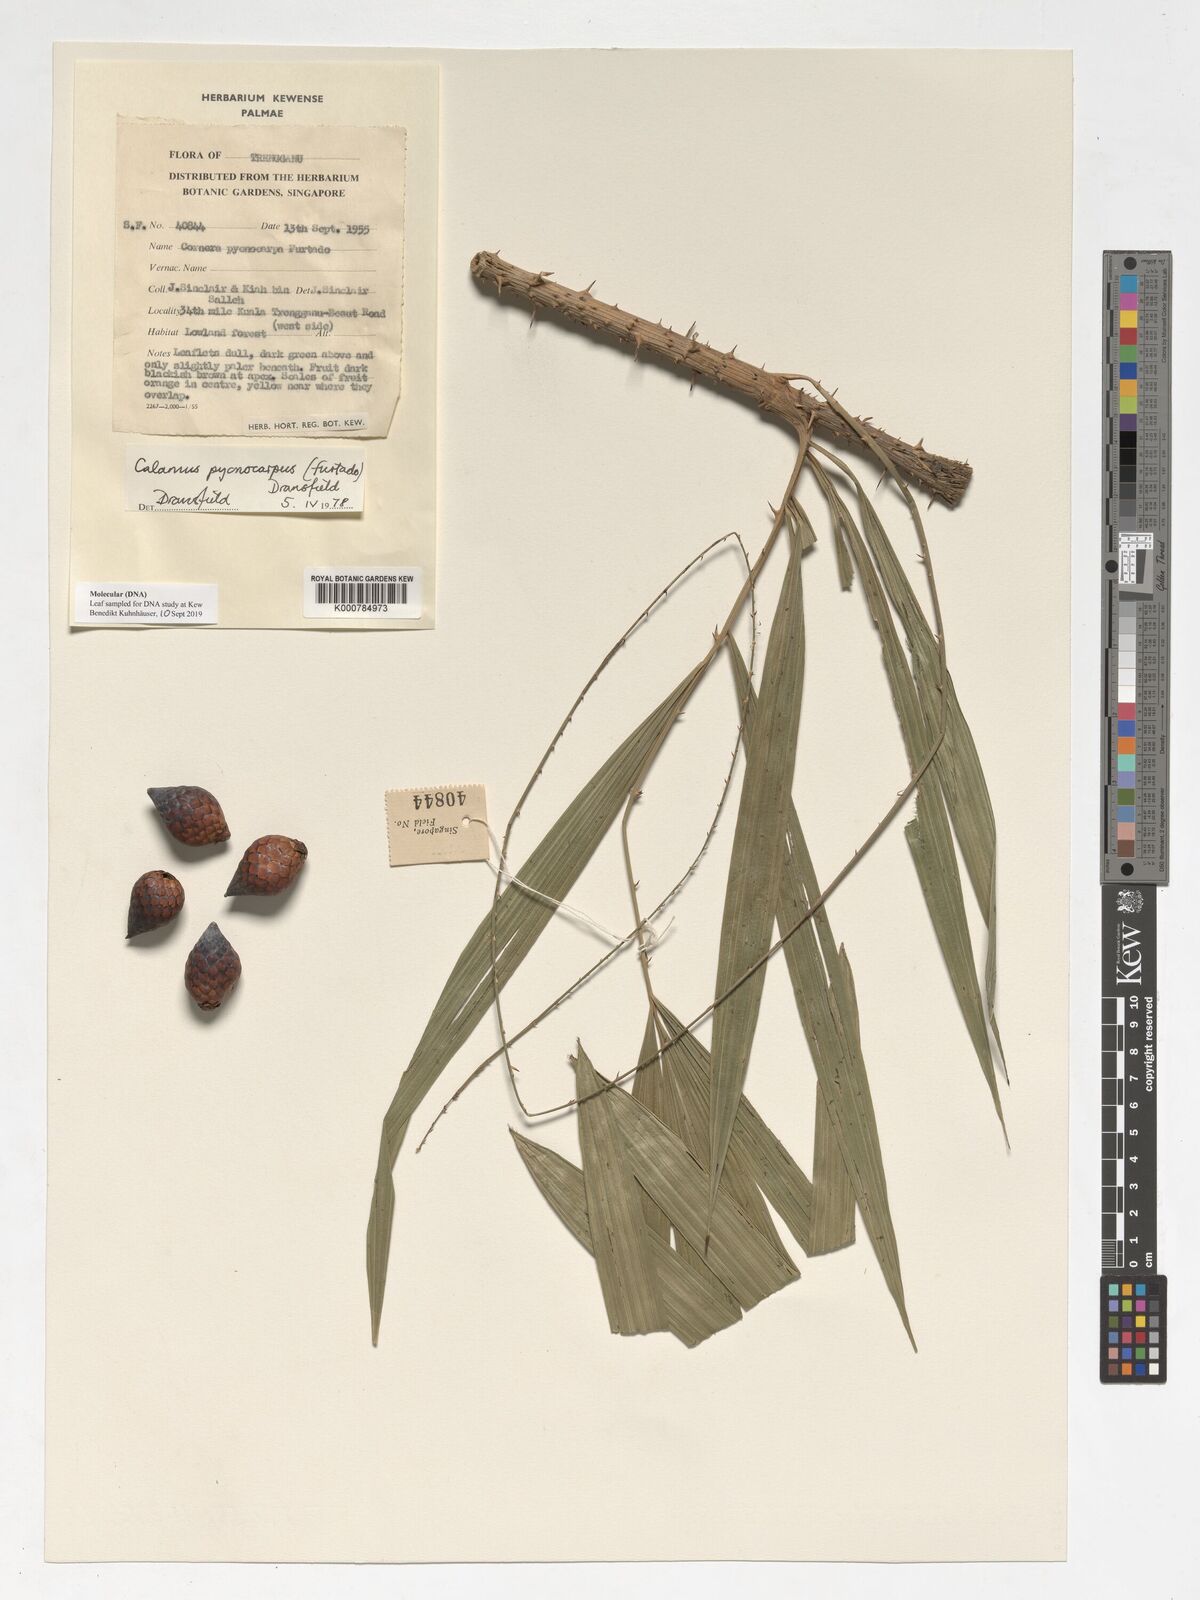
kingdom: Plantae
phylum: Tracheophyta
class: Liliopsida
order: Arecales
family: Arecaceae
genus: Calamus
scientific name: Calamus pycnocarpus
